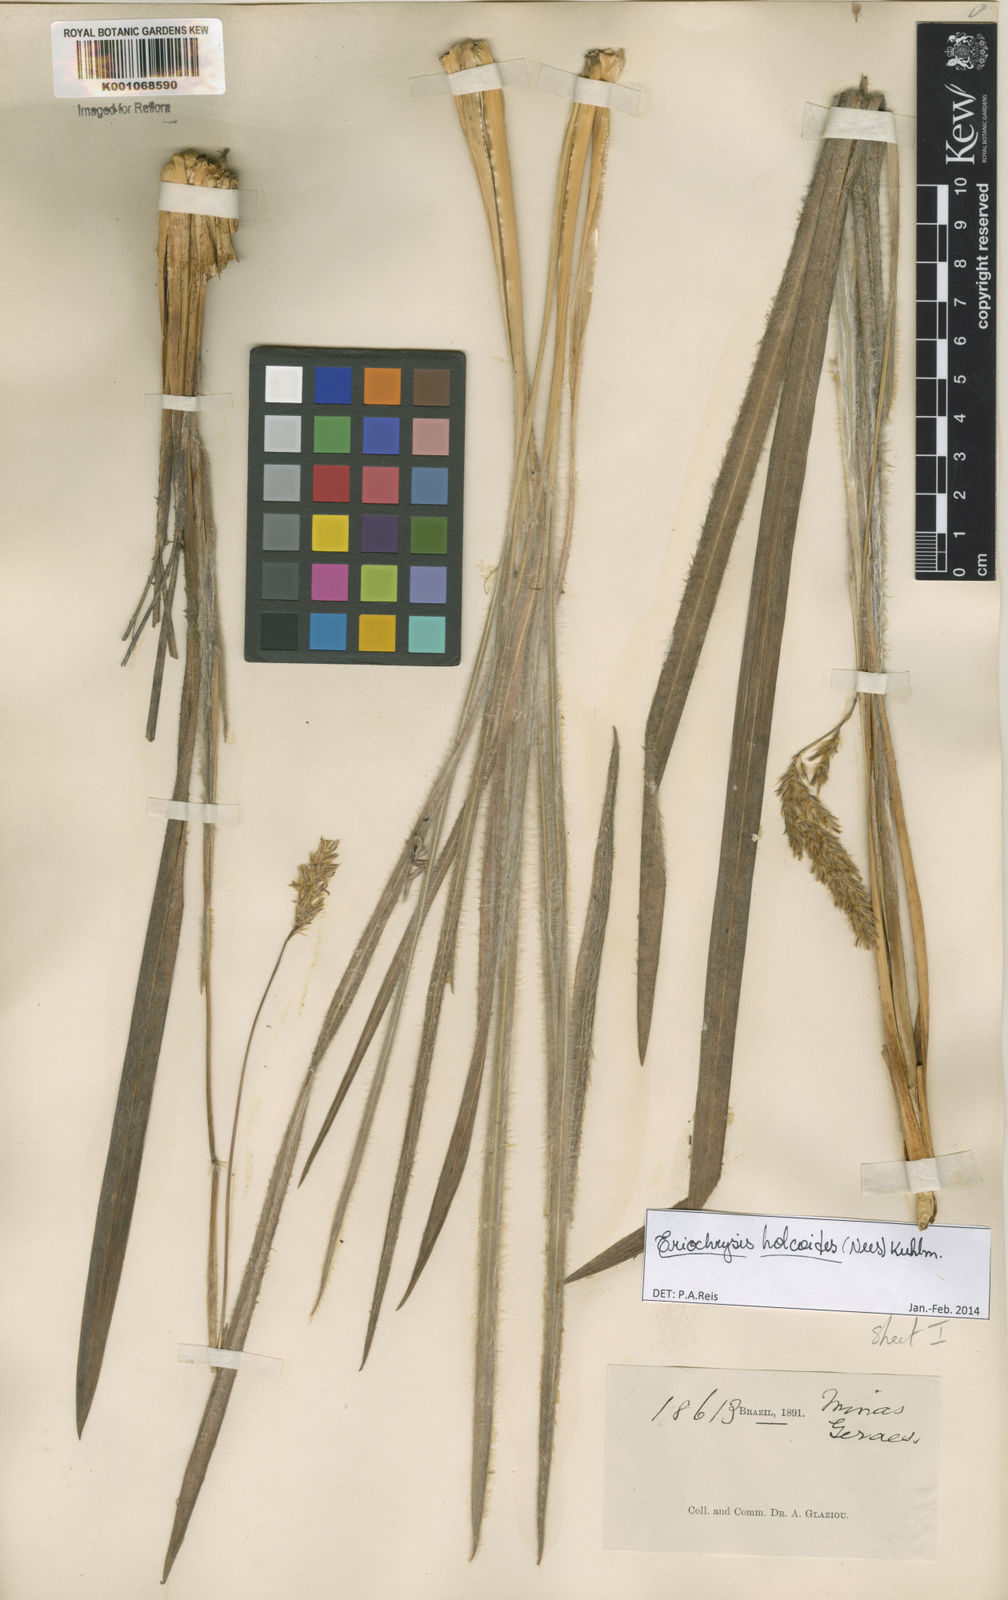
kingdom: Plantae
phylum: Tracheophyta
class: Liliopsida
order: Poales
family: Poaceae
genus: Eriochrysis
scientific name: Eriochrysis holcoides
